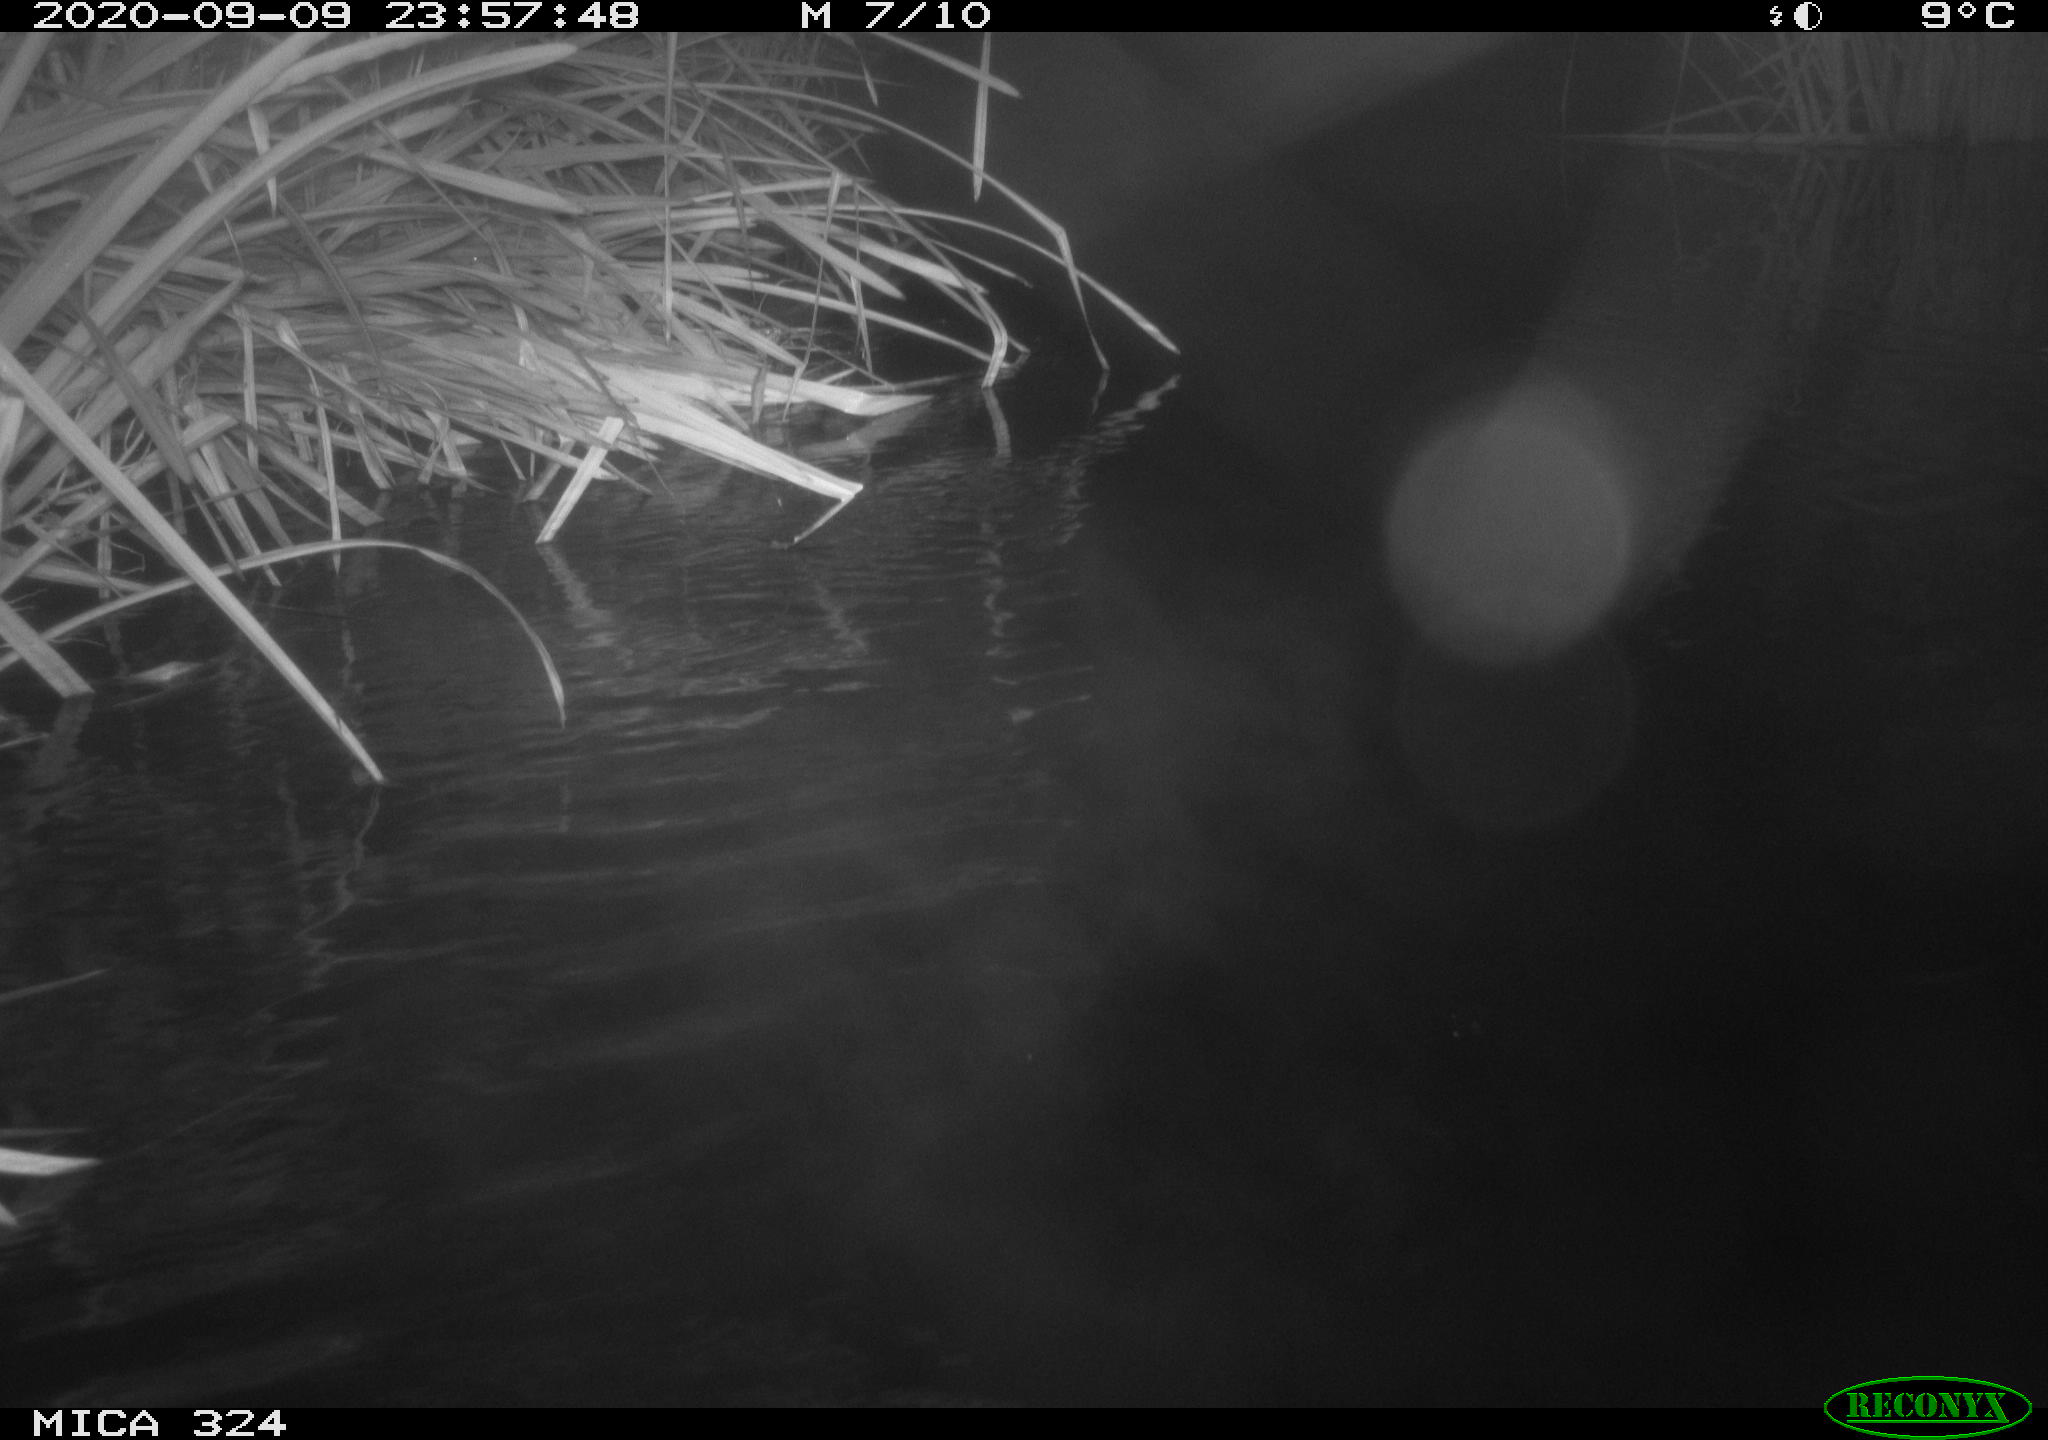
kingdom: Animalia
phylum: Chordata
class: Mammalia
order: Rodentia
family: Cricetidae
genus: Ondatra
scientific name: Ondatra zibethicus
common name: Muskrat
